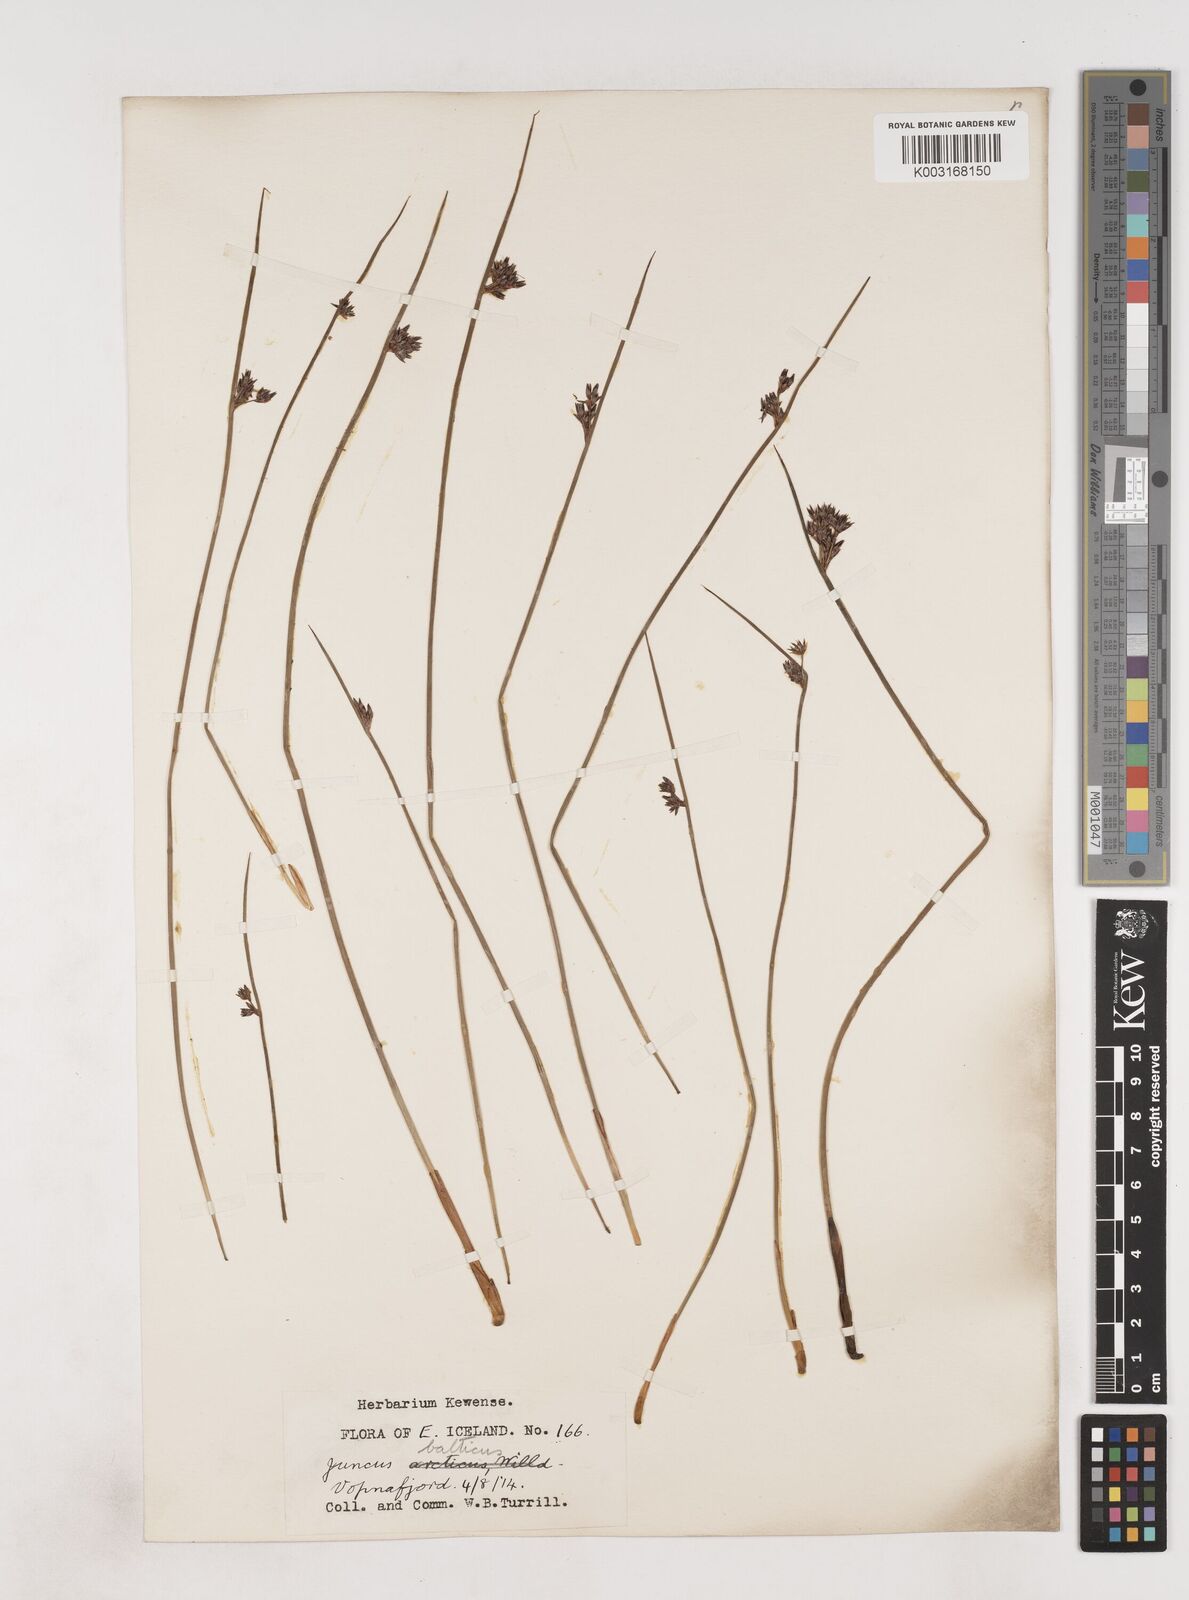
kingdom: Plantae
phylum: Tracheophyta
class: Liliopsida
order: Poales
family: Juncaceae
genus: Juncus
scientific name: Juncus balticus
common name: Baltic rush
